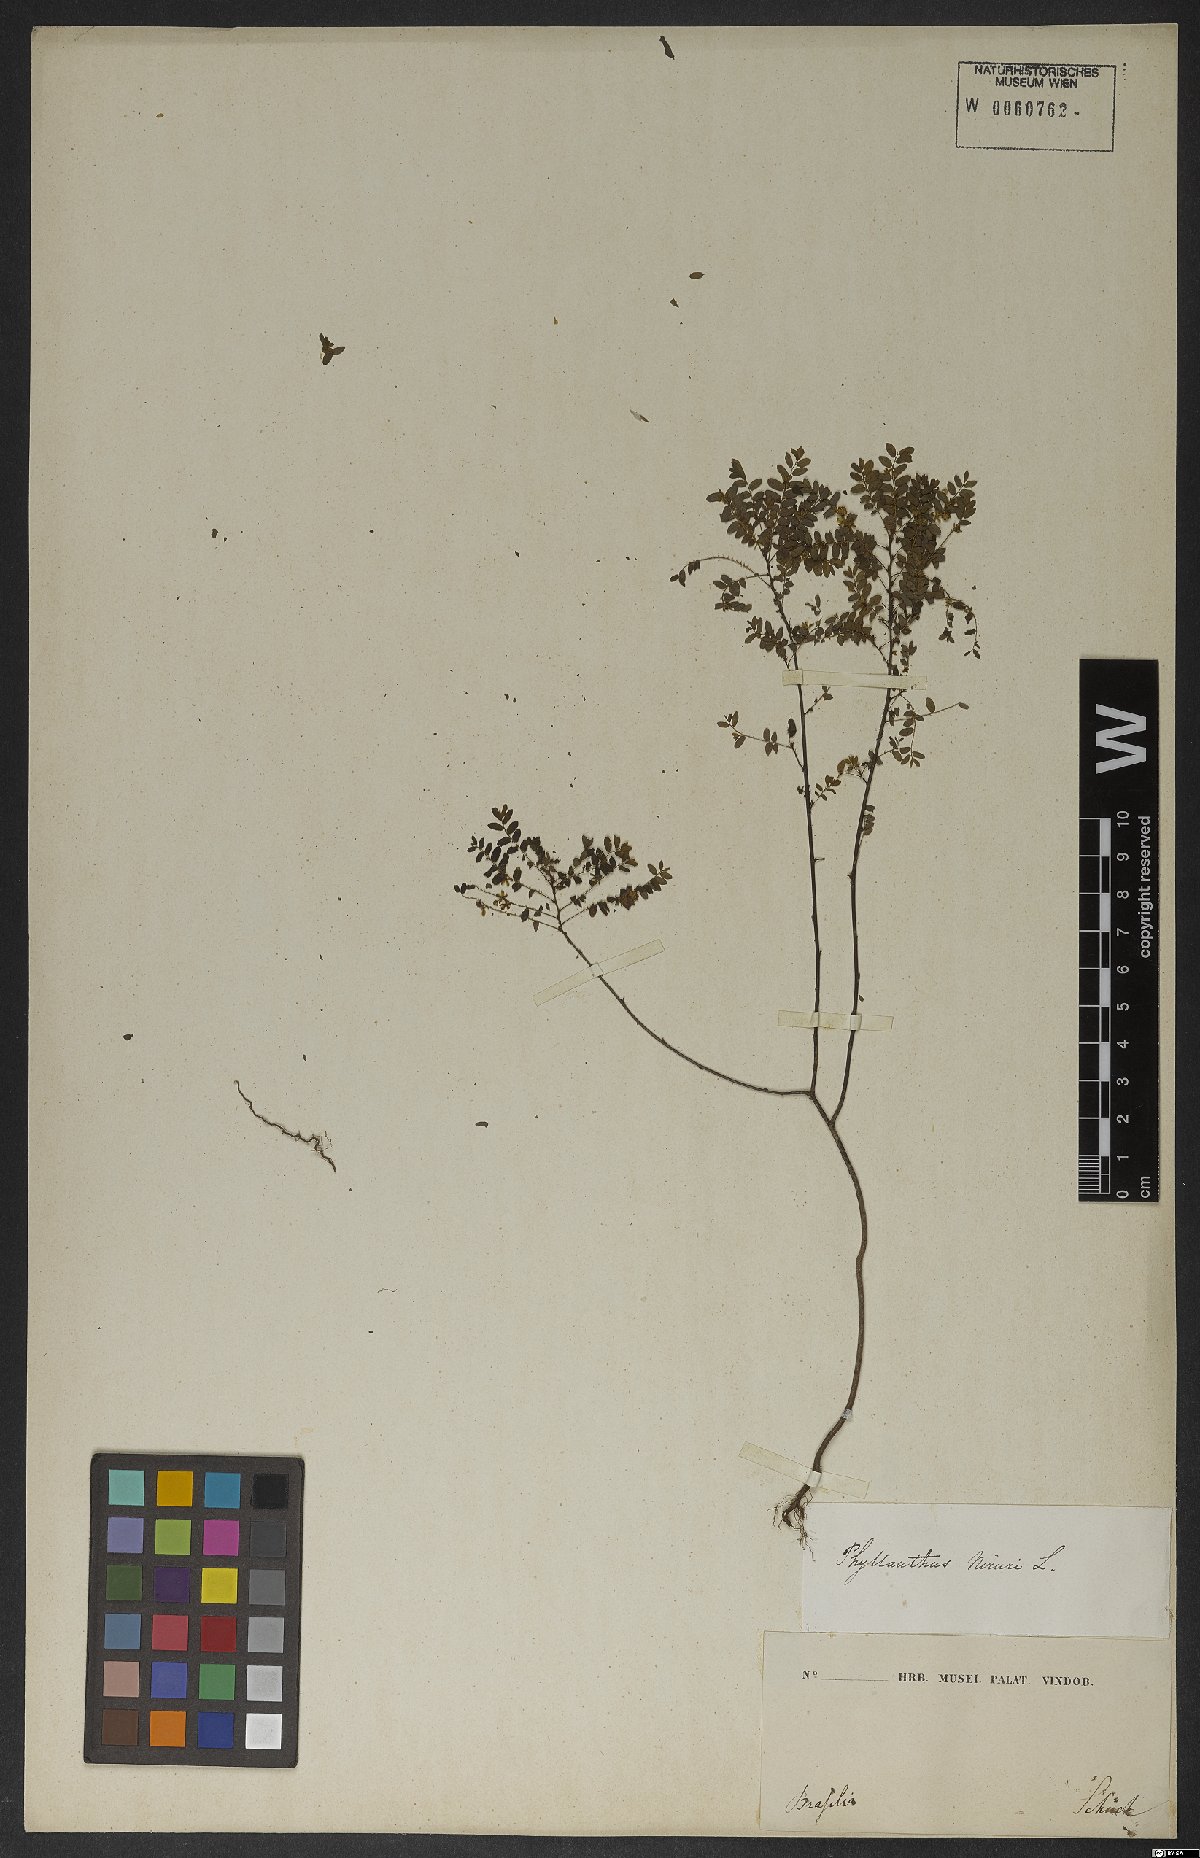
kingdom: Plantae
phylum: Tracheophyta
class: Magnoliopsida
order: Malpighiales
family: Phyllanthaceae
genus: Phyllanthus
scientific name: Phyllanthus
